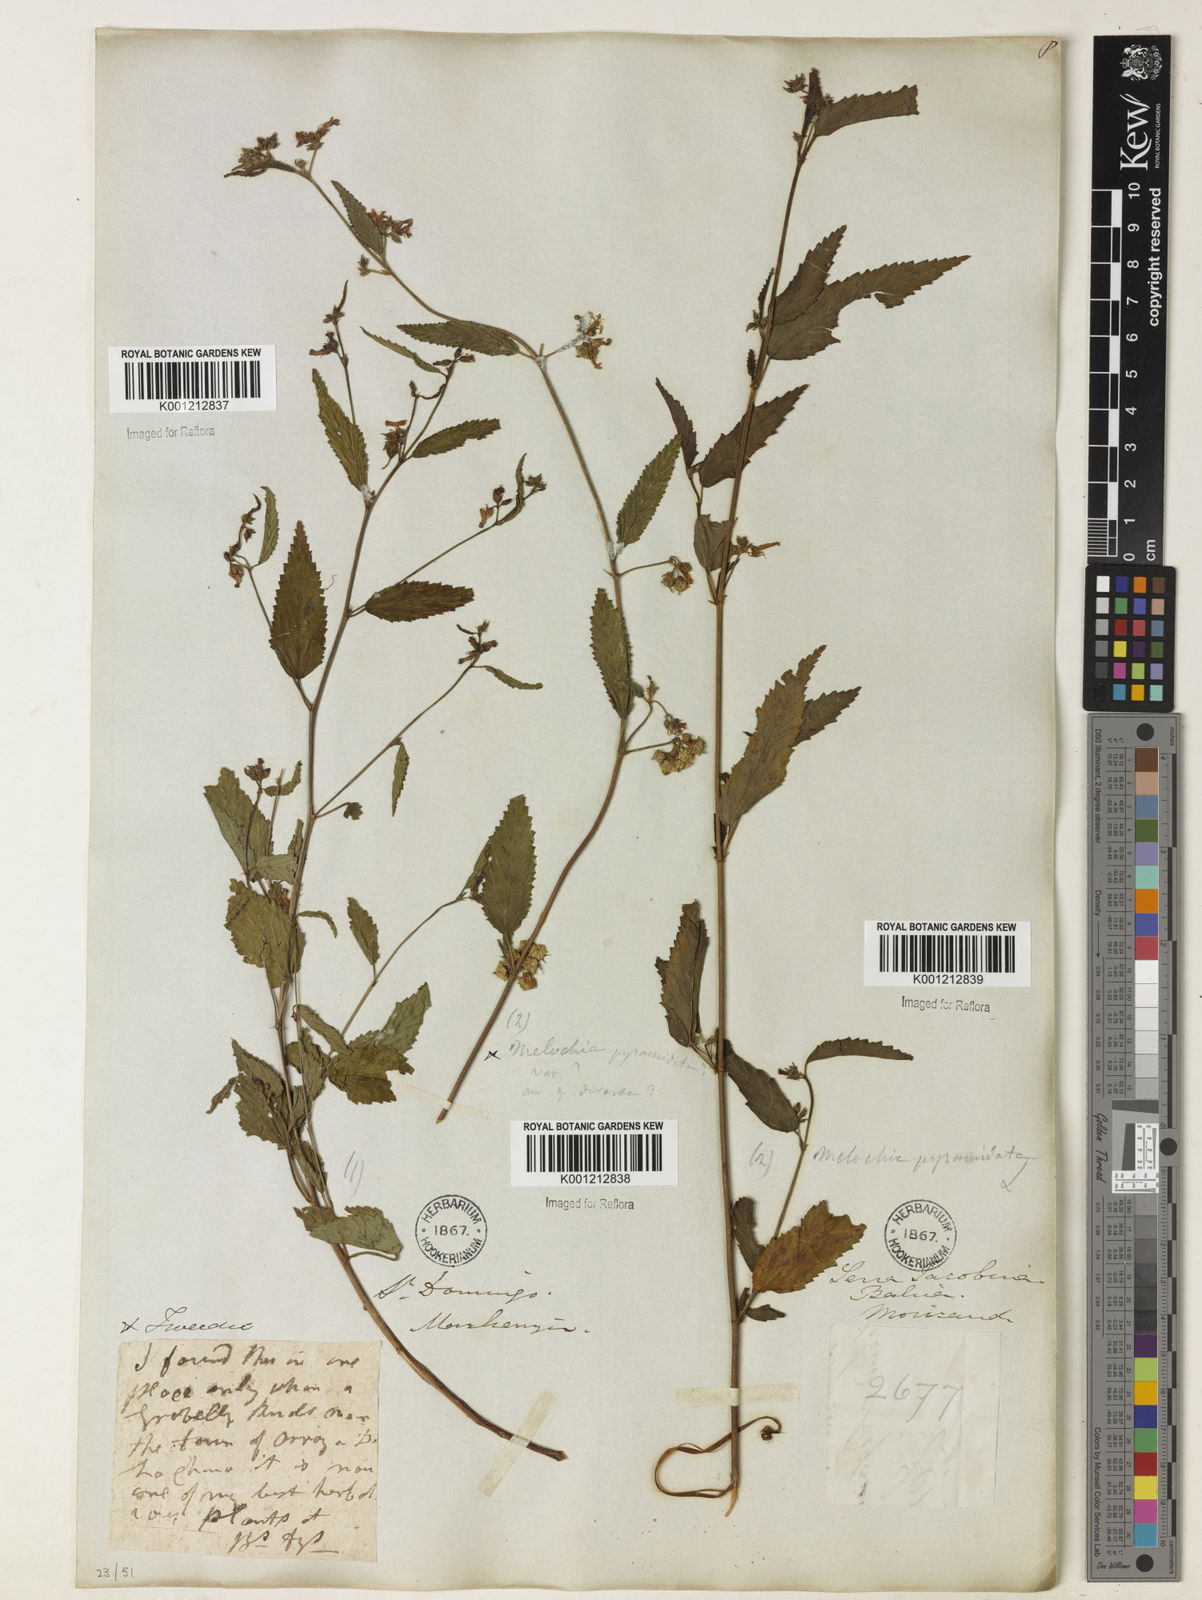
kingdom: Plantae
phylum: Tracheophyta
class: Magnoliopsida
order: Malvales
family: Malvaceae
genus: Melochia
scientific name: Melochia pyramidata
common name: Pyramidflower
